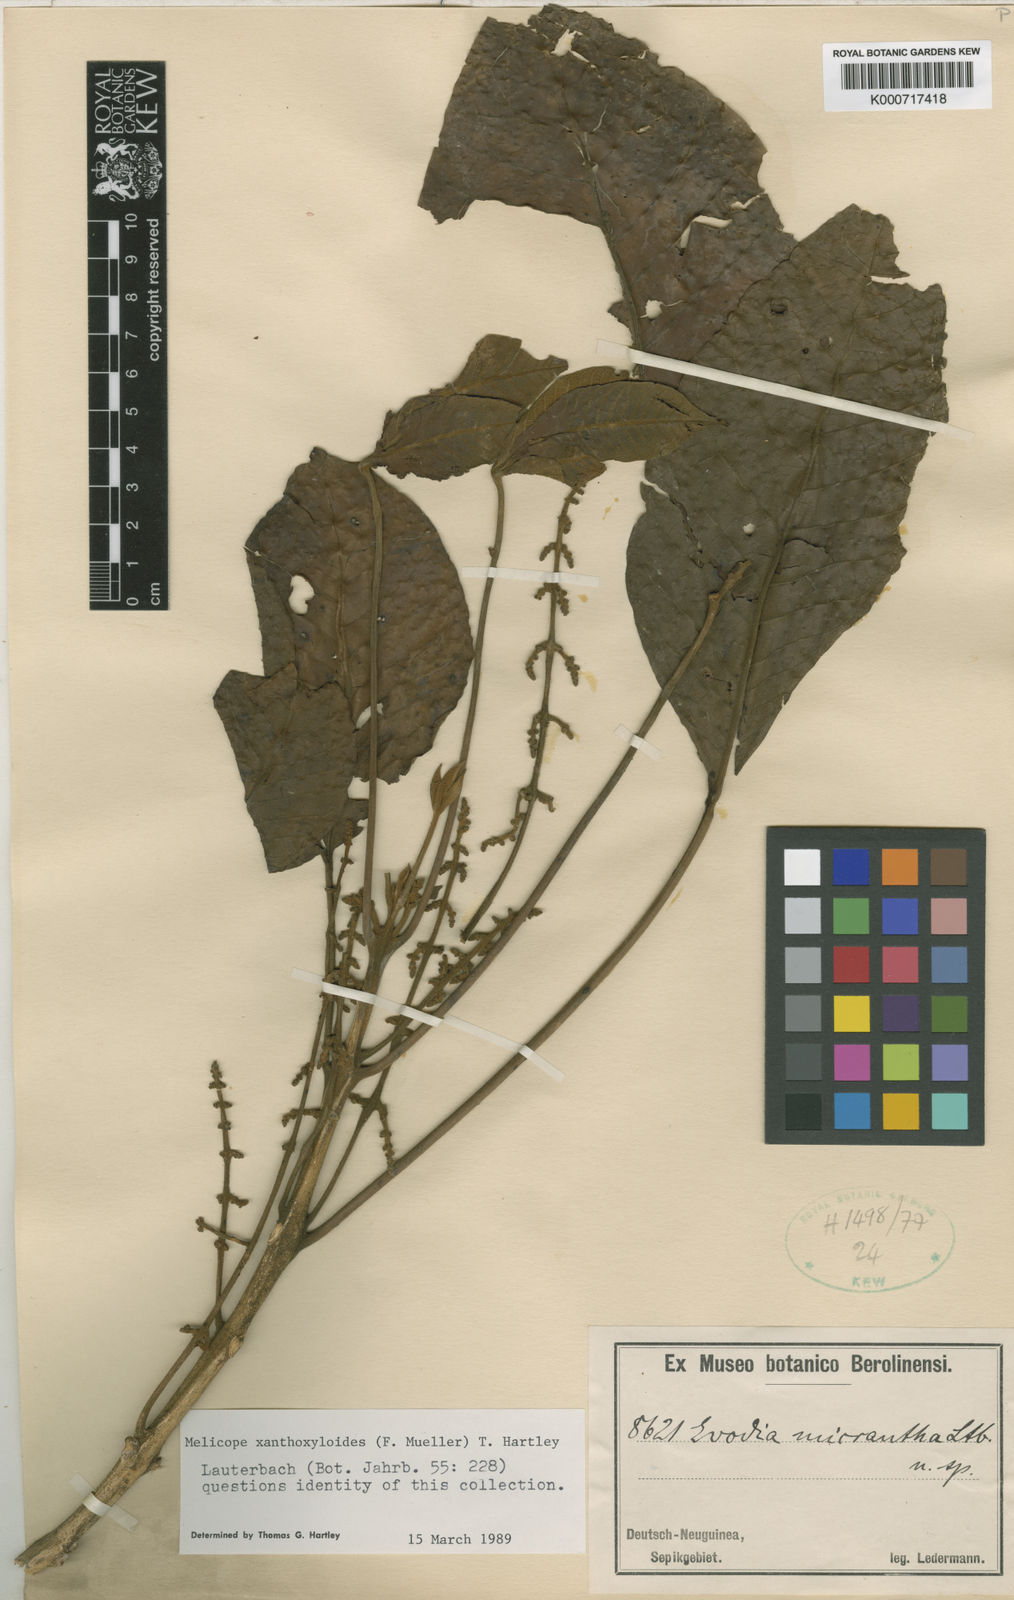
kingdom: Plantae
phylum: Tracheophyta
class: Magnoliopsida
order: Sapindales
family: Rutaceae
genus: Melicope
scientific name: Melicope xanthoxyloides
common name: Yellow evodia
